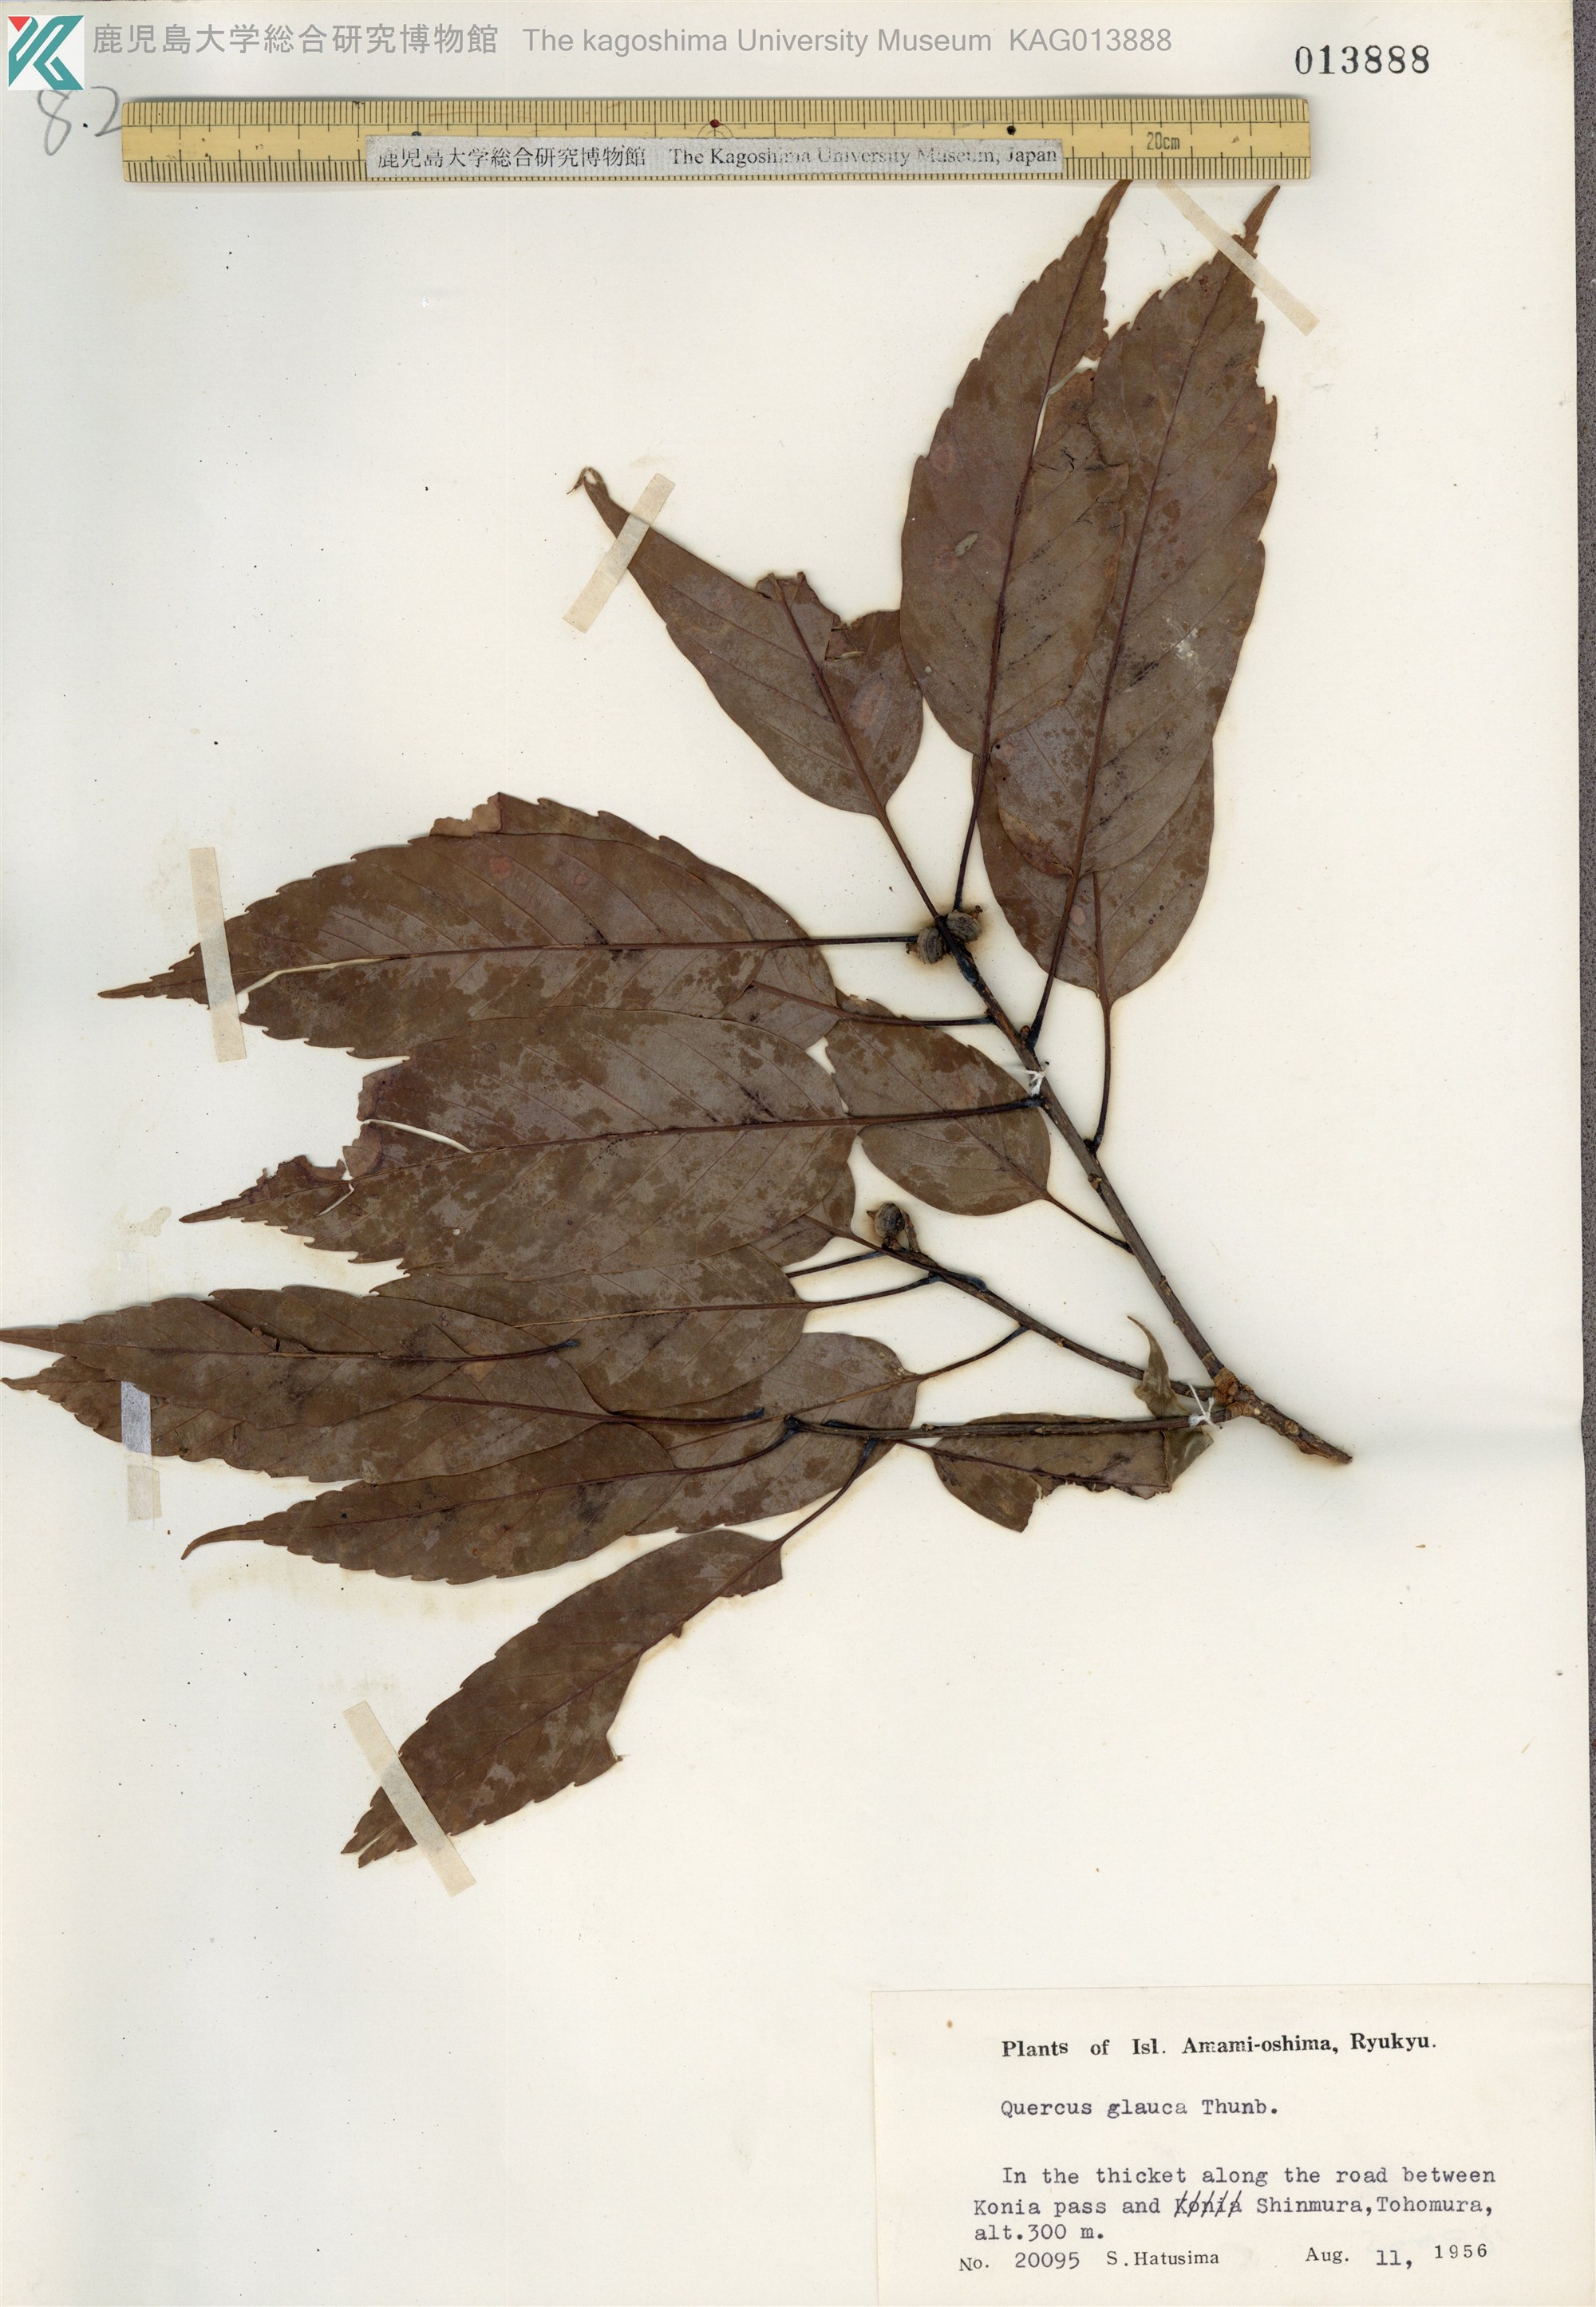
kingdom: Plantae
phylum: Tracheophyta
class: Magnoliopsida
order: Fagales
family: Fagaceae
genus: Quercus
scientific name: Quercus glauca
